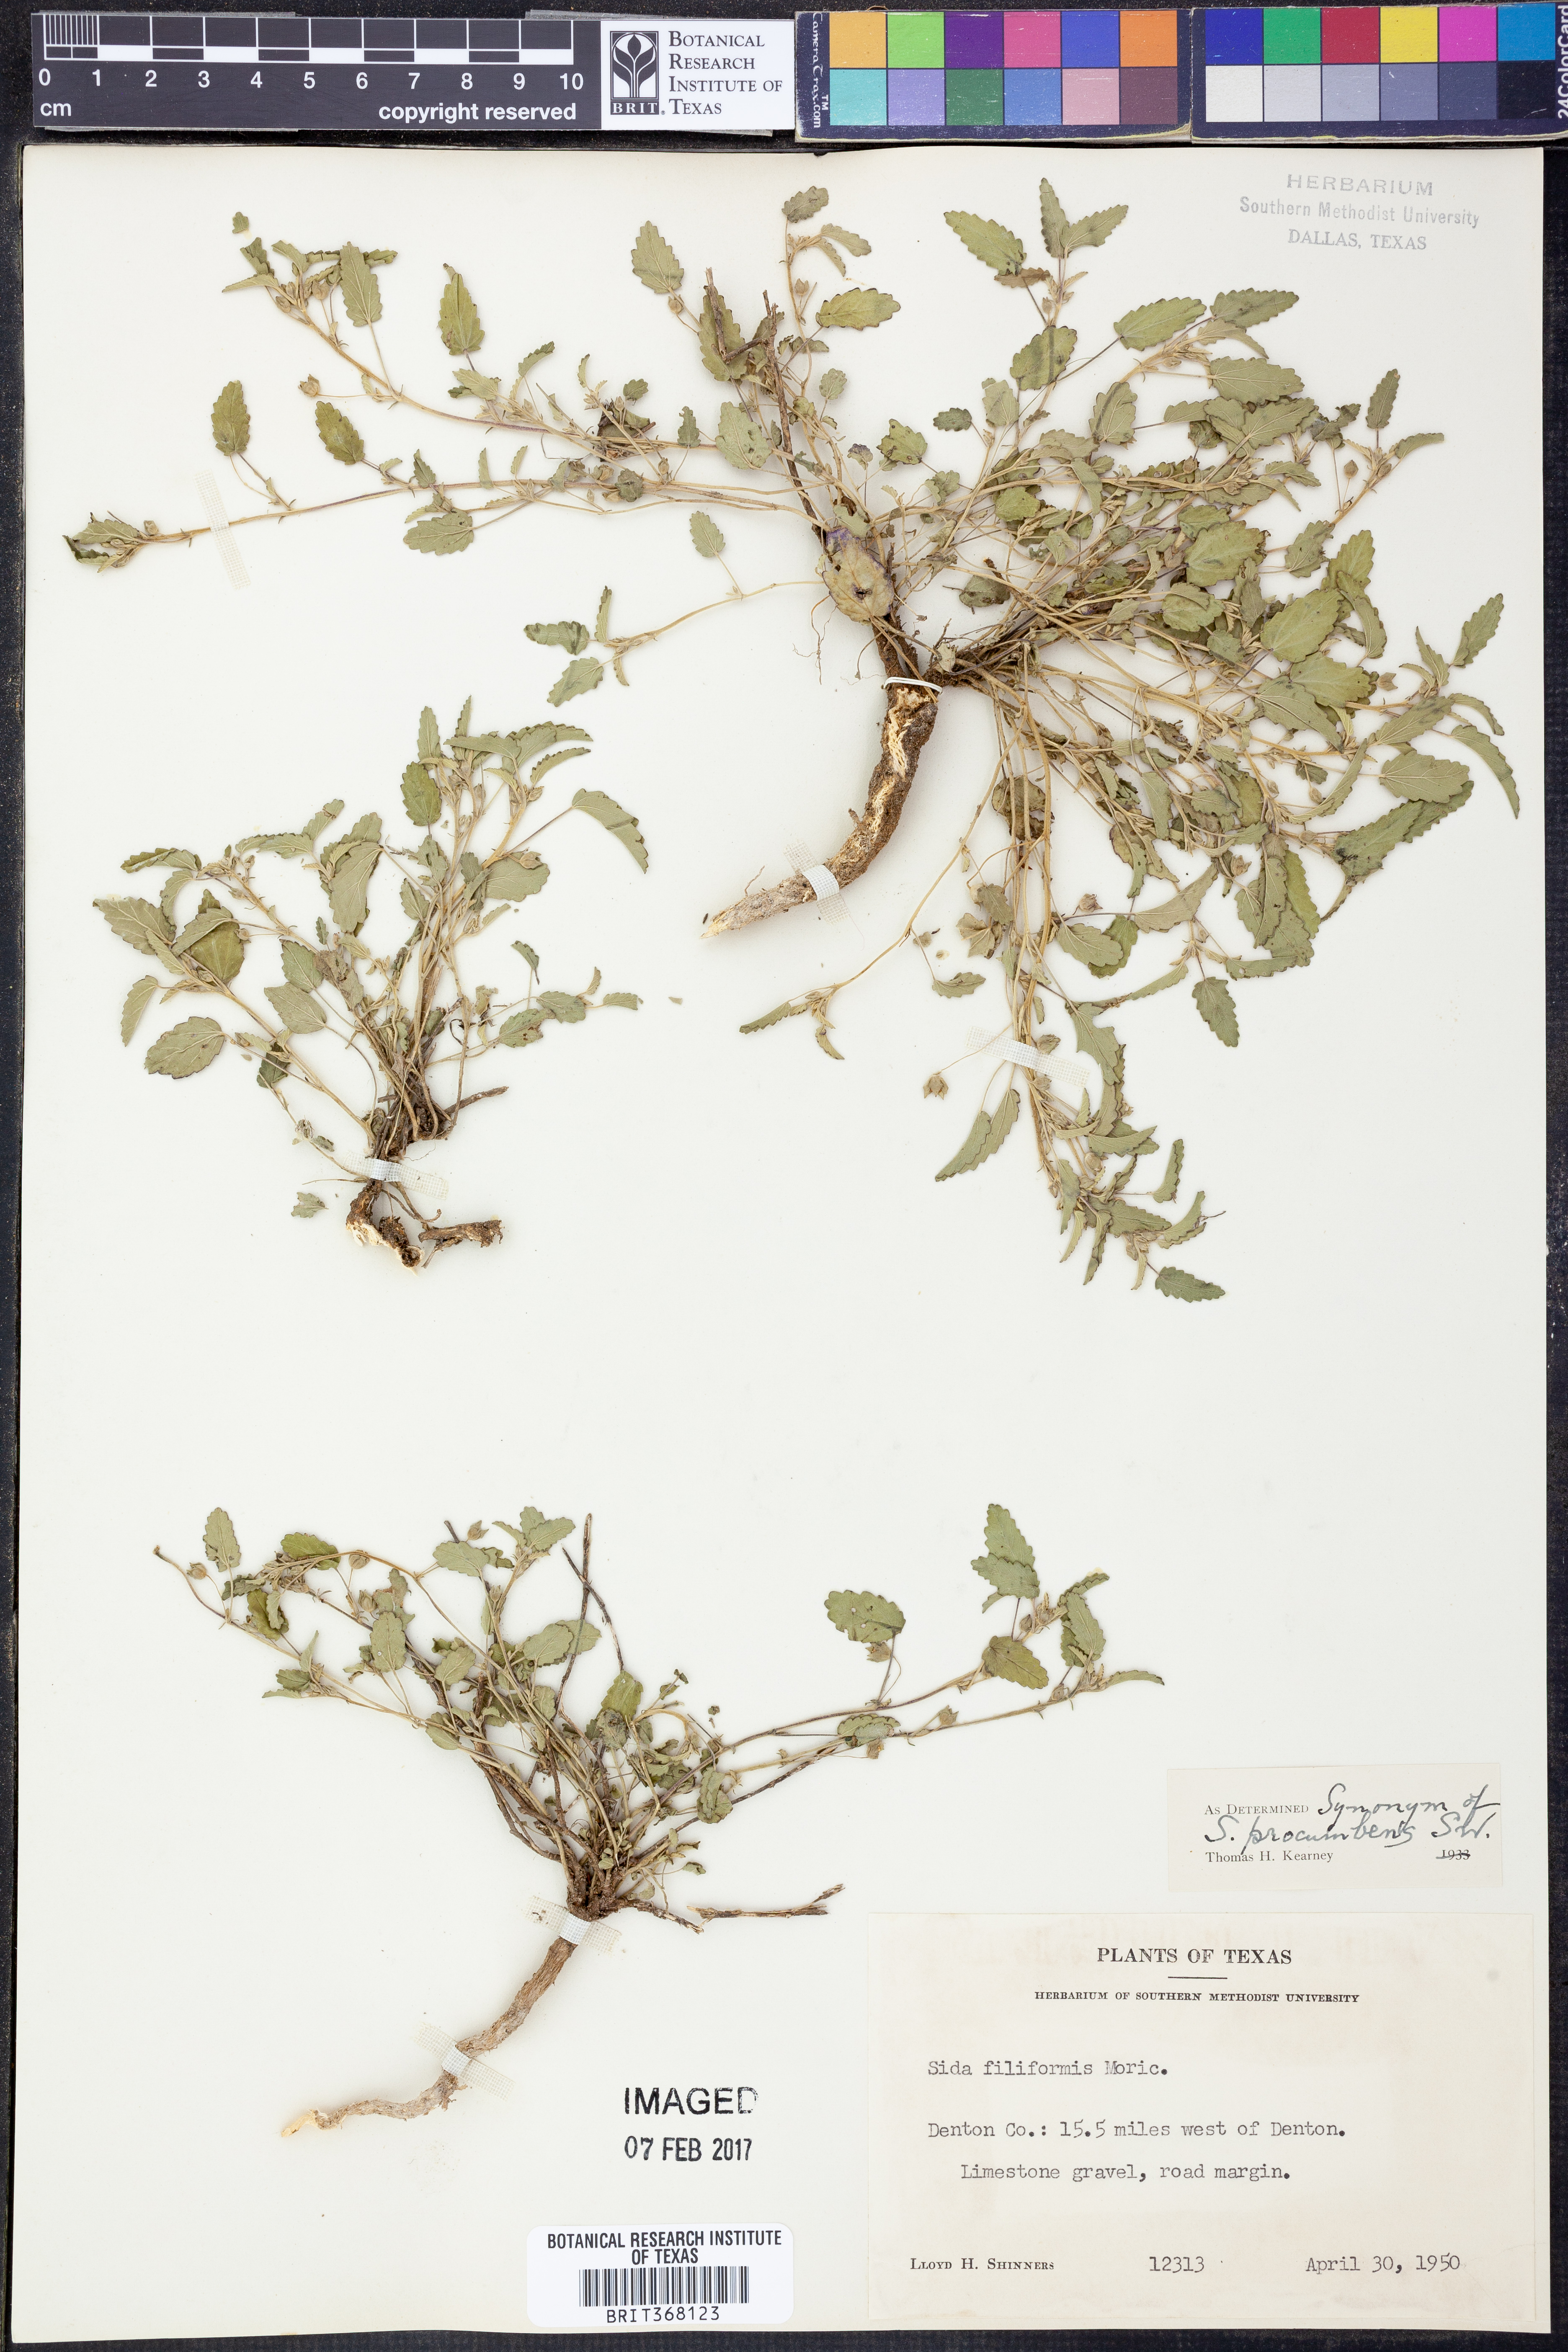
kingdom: Plantae
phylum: Tracheophyta
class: Magnoliopsida
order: Malvales
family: Malvaceae
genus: Sida
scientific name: Sida abutilifolia
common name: Spreading fanpetals
